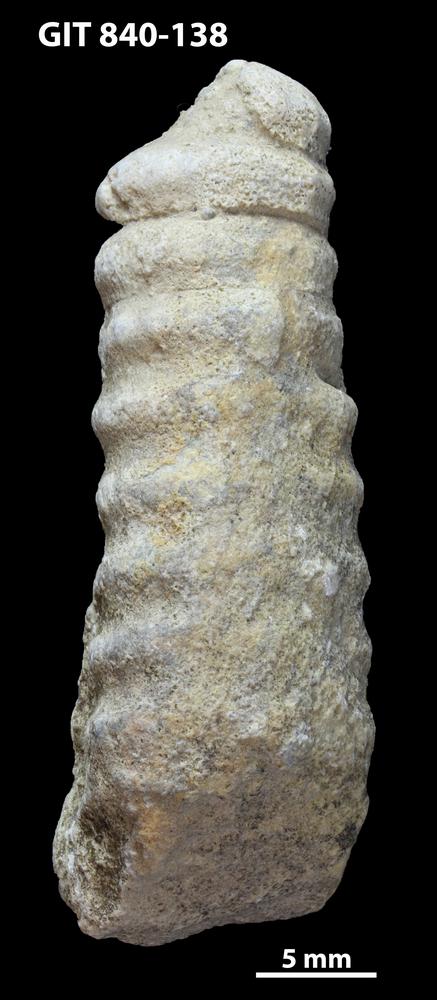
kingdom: Animalia
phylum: Mollusca
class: Cephalopoda
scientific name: Cephalopoda
